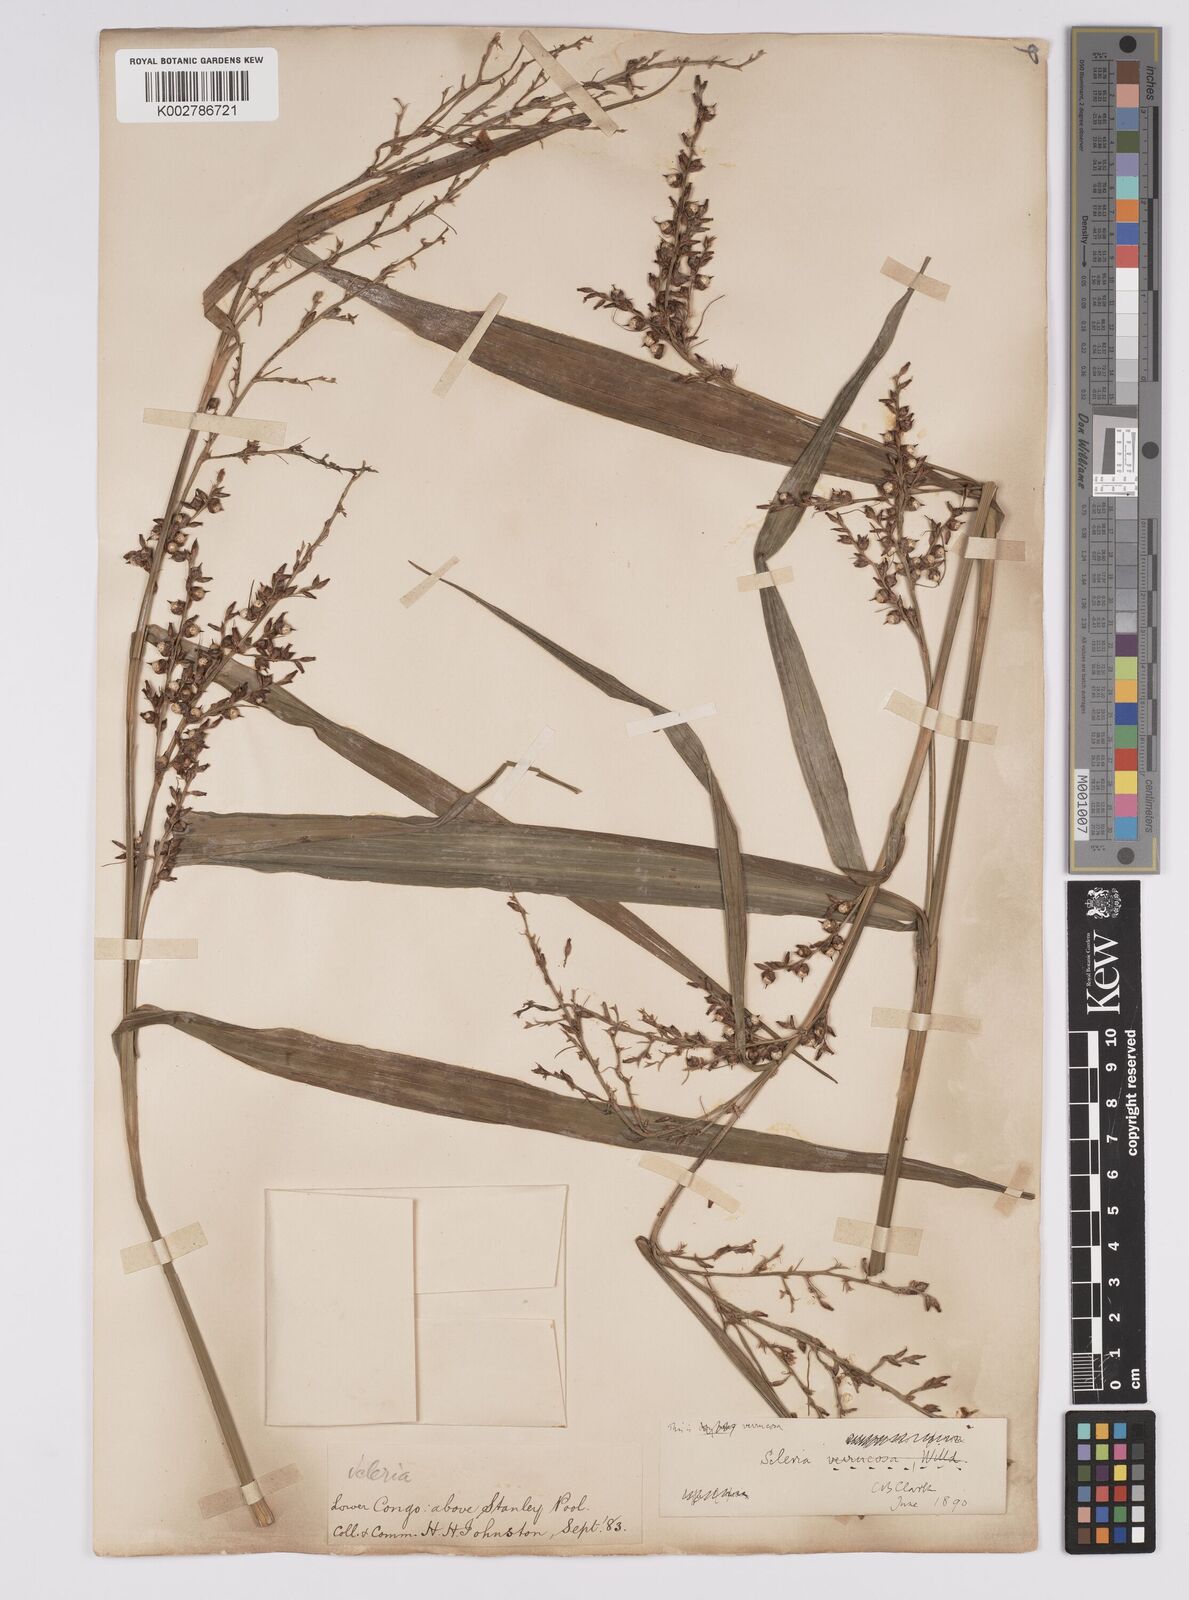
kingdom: Plantae
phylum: Tracheophyta
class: Liliopsida
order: Poales
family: Cyperaceae
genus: Scleria
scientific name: Scleria verrucosa
